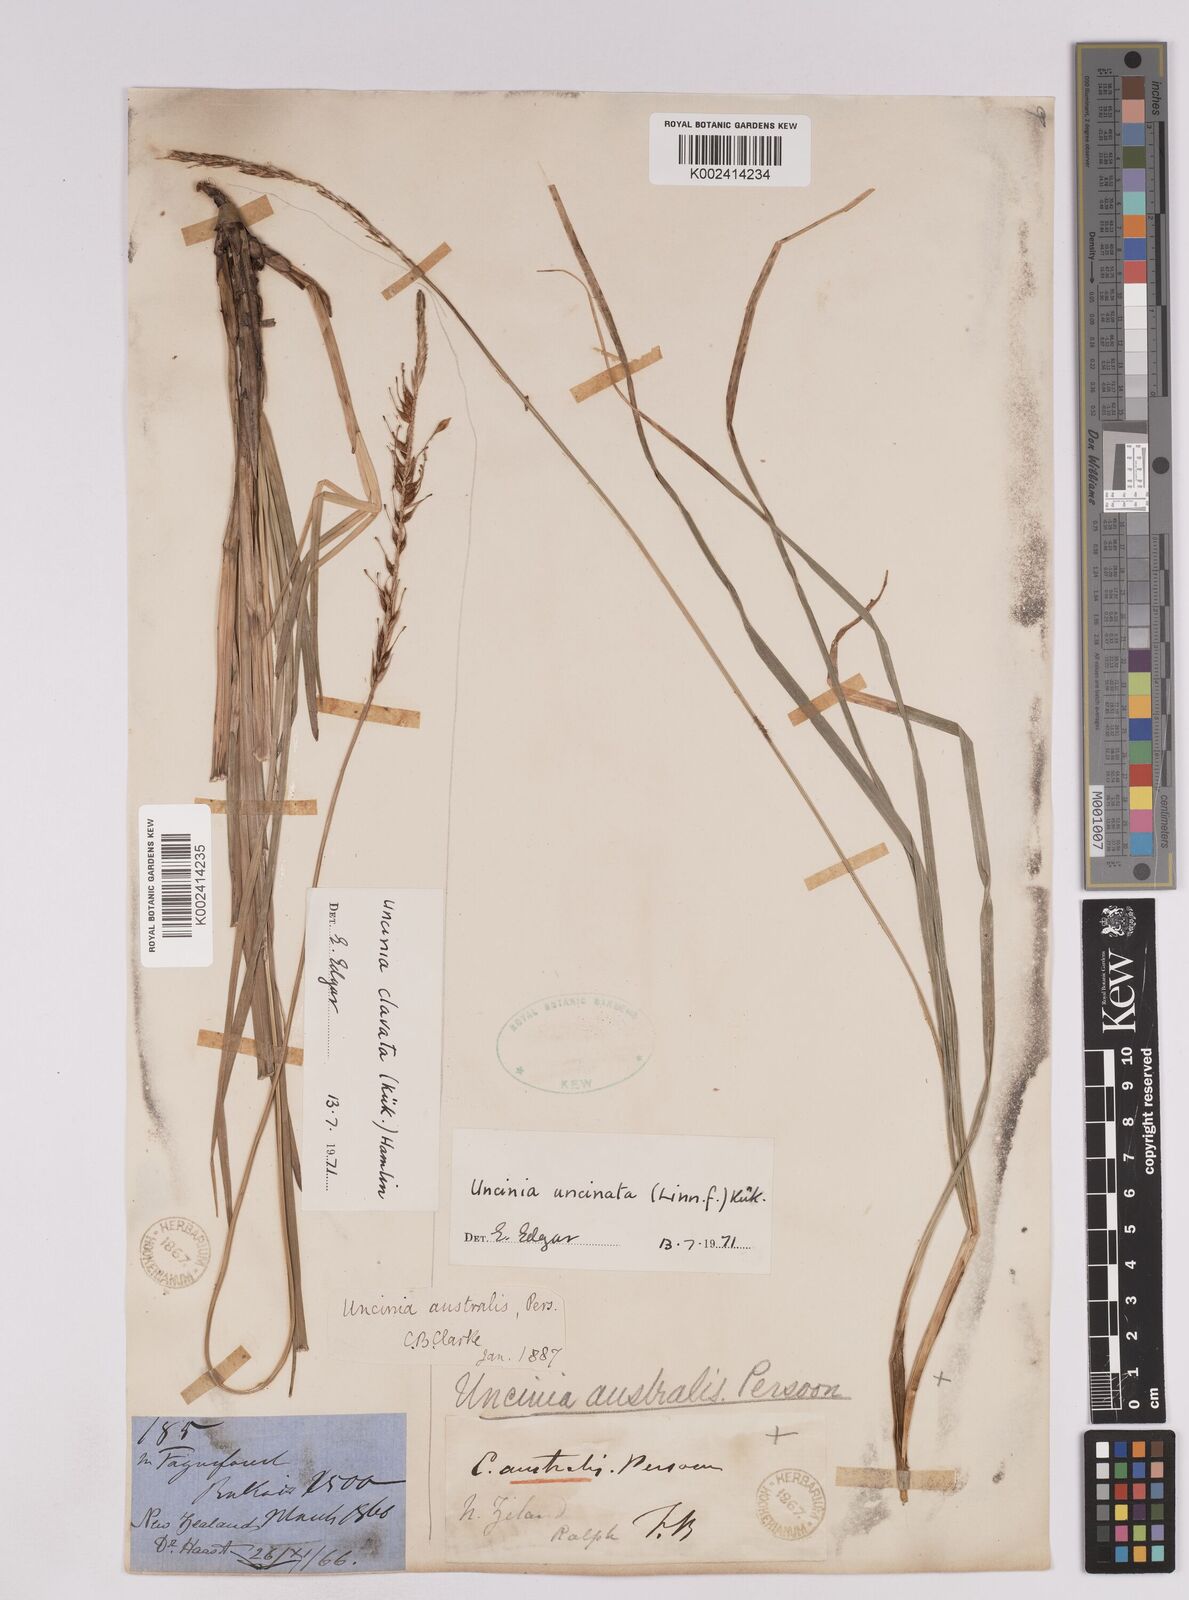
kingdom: Plantae
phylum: Tracheophyta
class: Liliopsida
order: Poales
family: Cyperaceae
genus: Carex
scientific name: Carex uncinata
